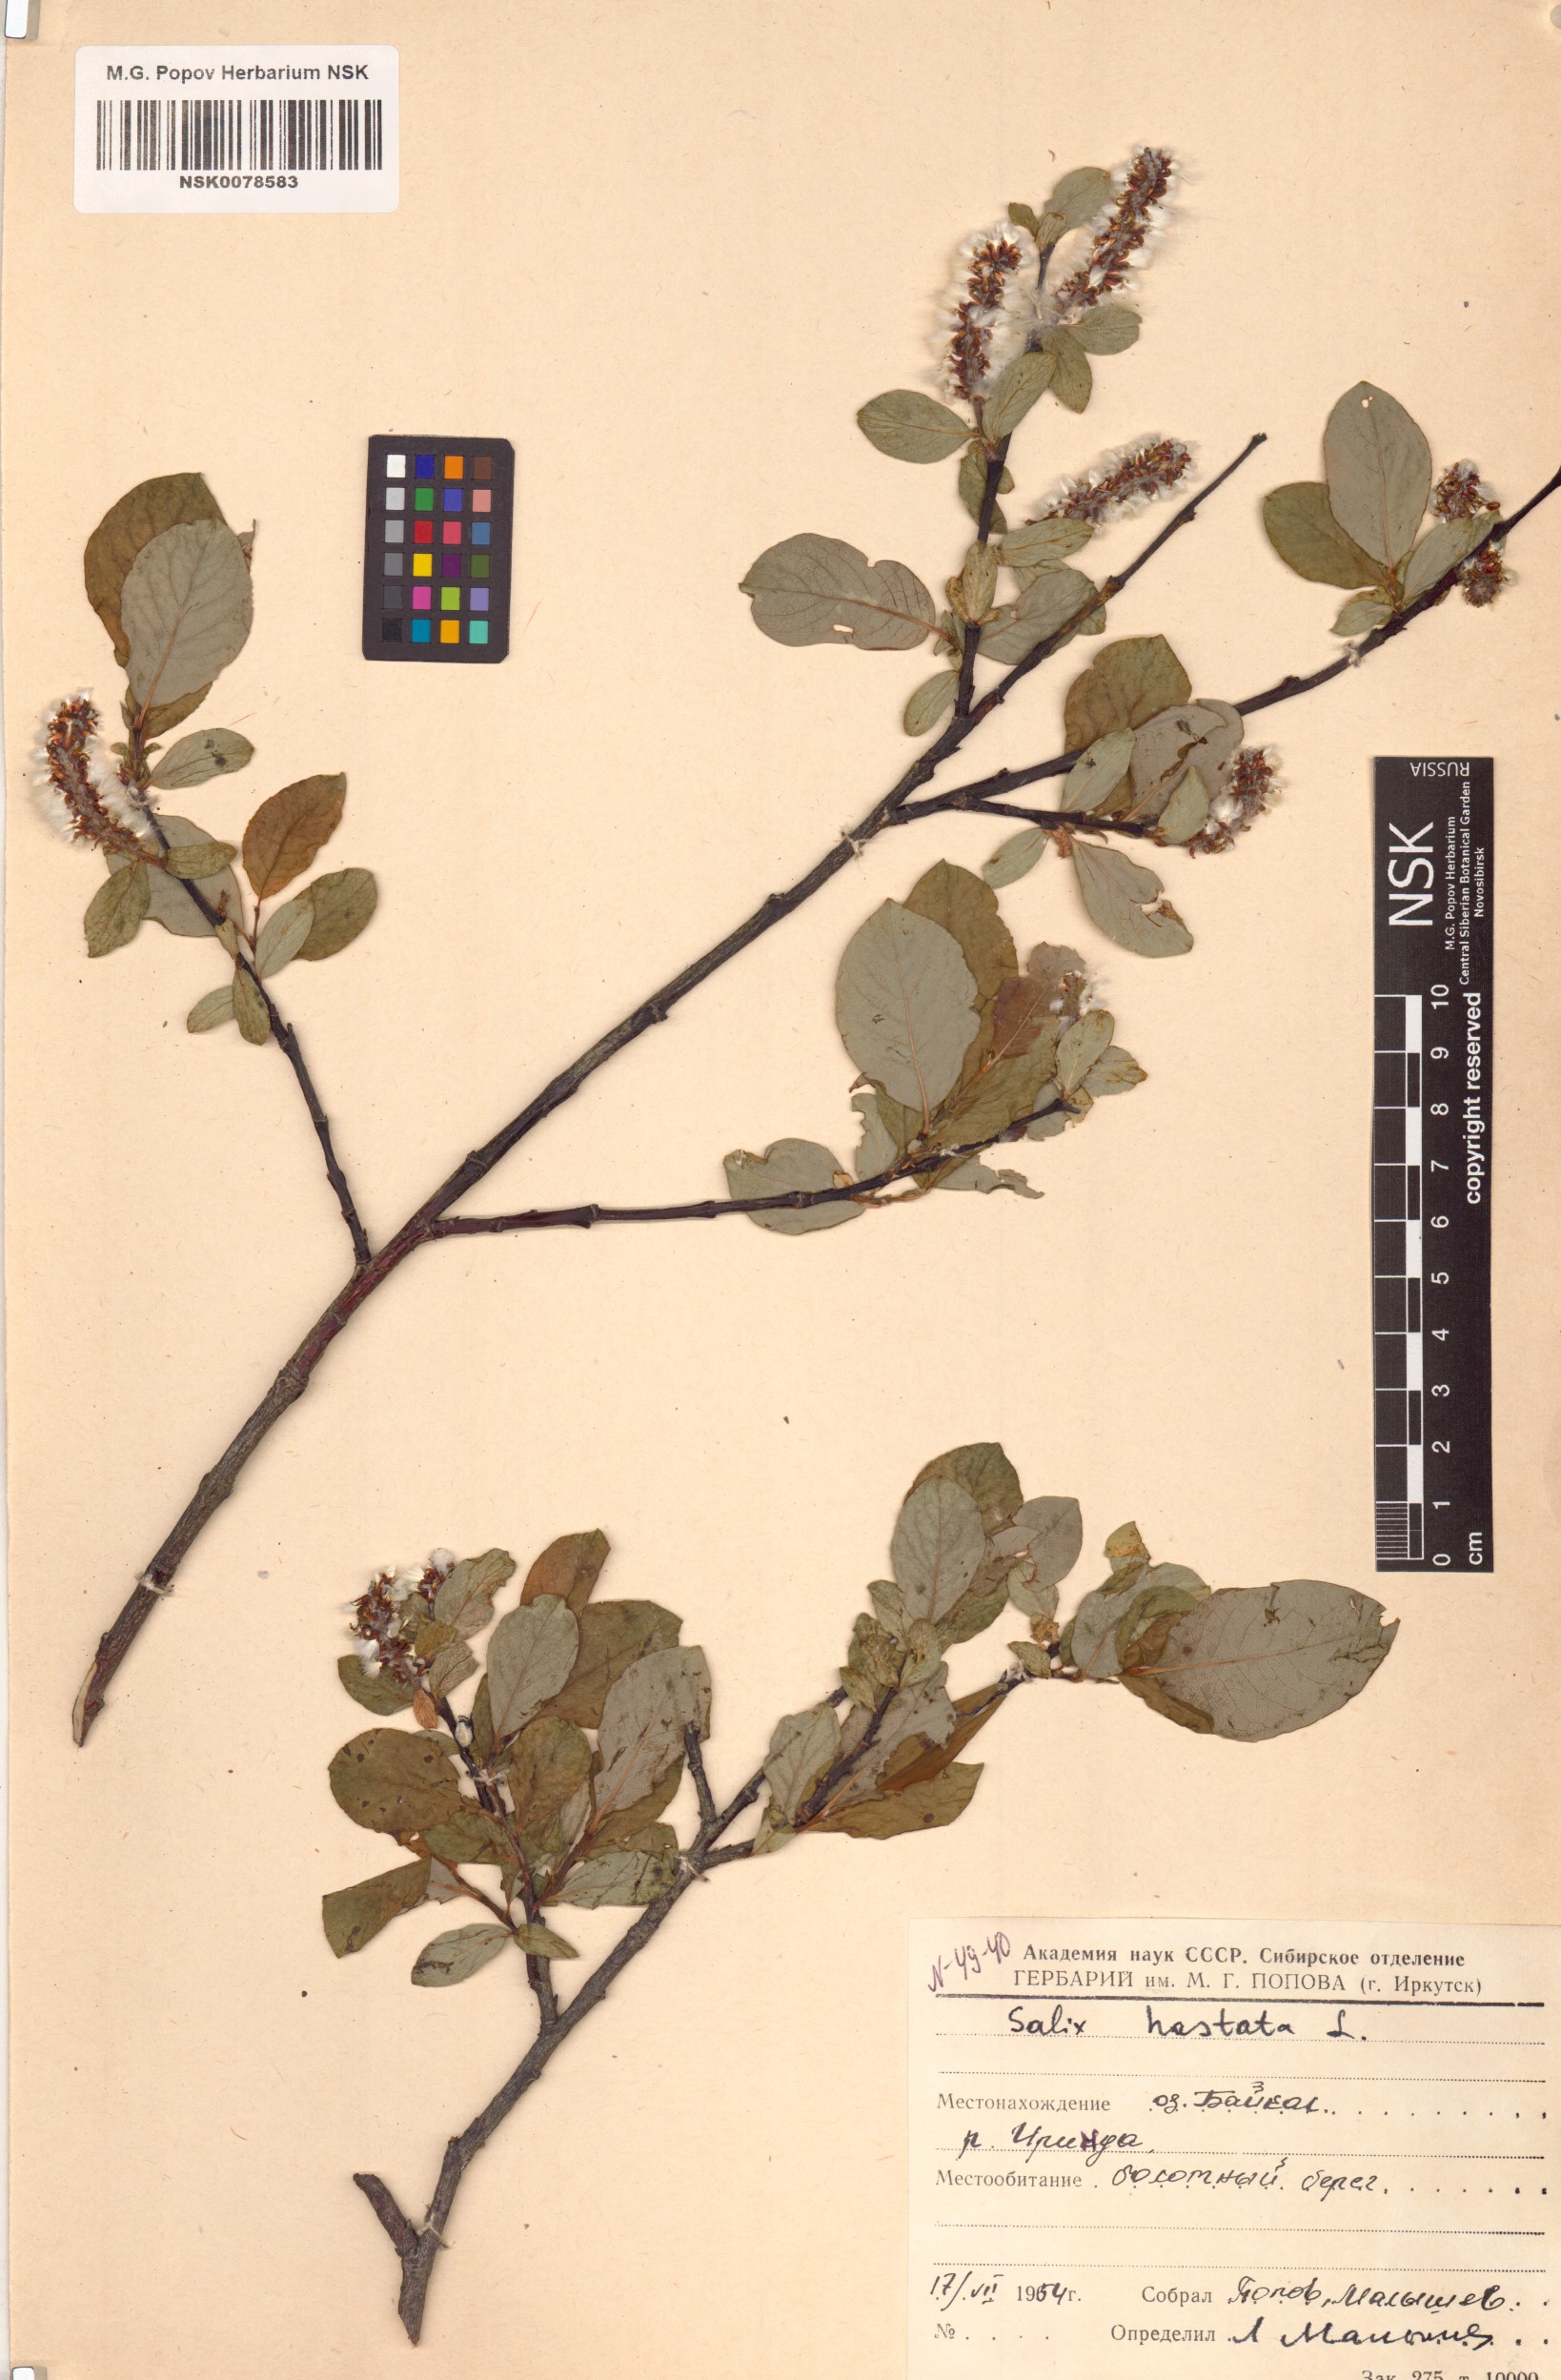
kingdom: Plantae
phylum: Tracheophyta
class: Magnoliopsida
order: Malpighiales
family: Salicaceae
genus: Salix
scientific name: Salix hastata
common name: Halberd willow
